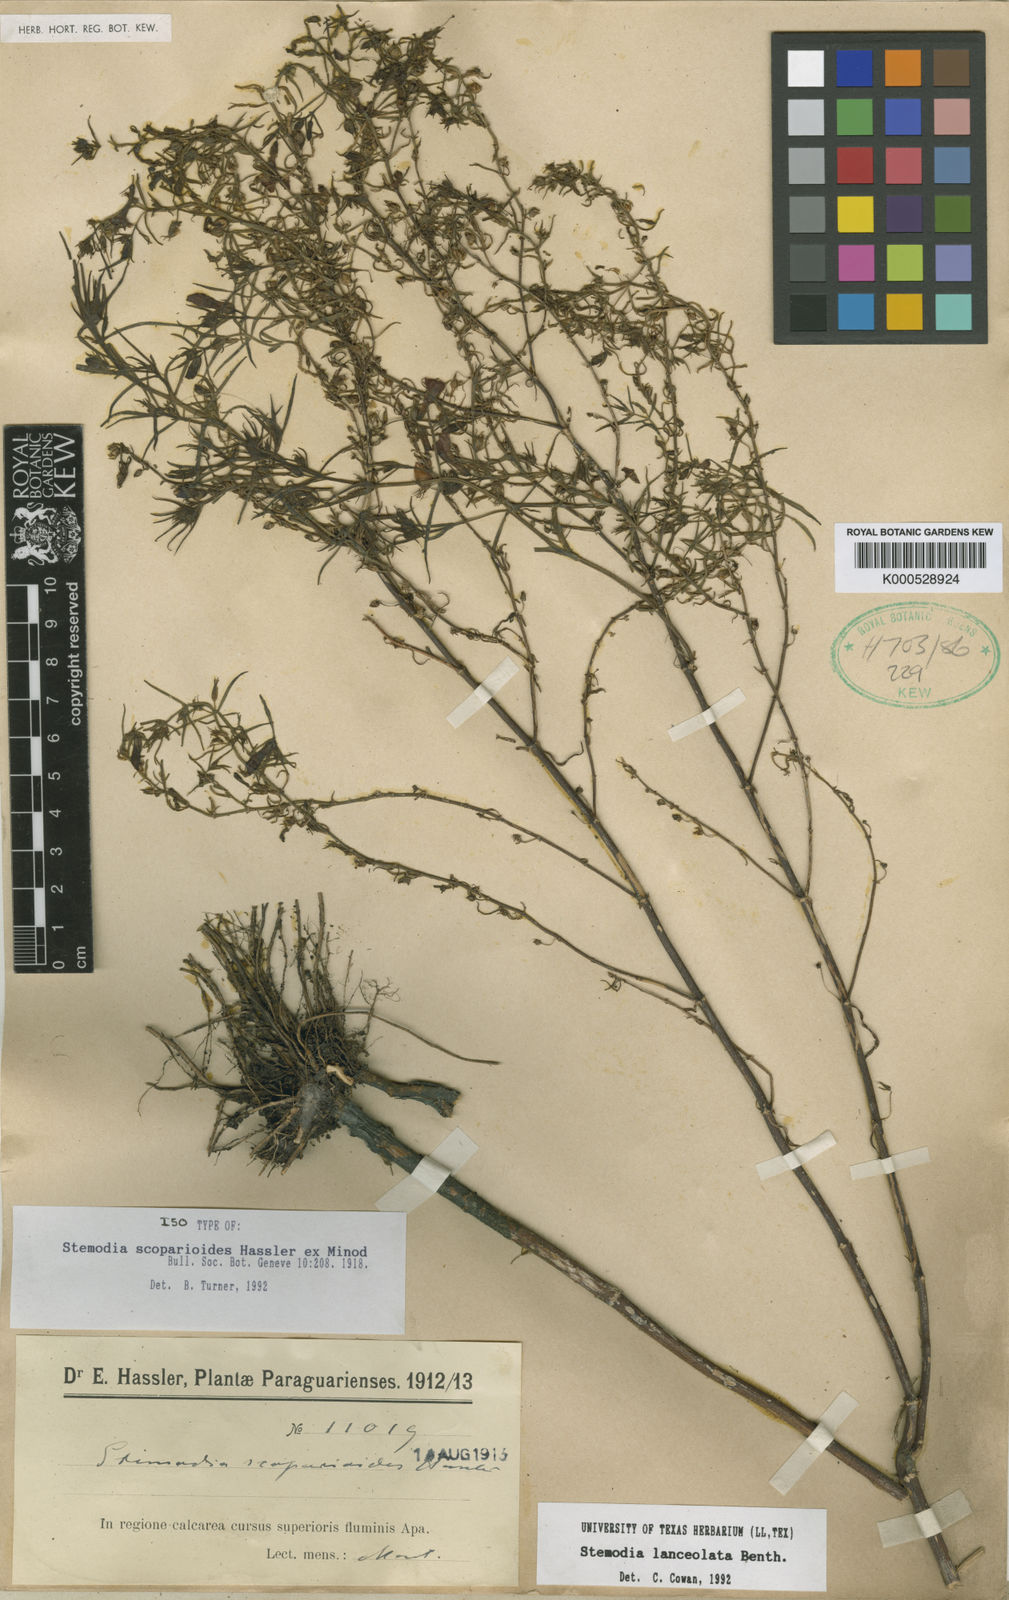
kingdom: Plantae
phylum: Tracheophyta
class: Magnoliopsida
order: Lamiales
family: Plantaginaceae
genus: Stemodia
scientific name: Stemodia lanceolata
